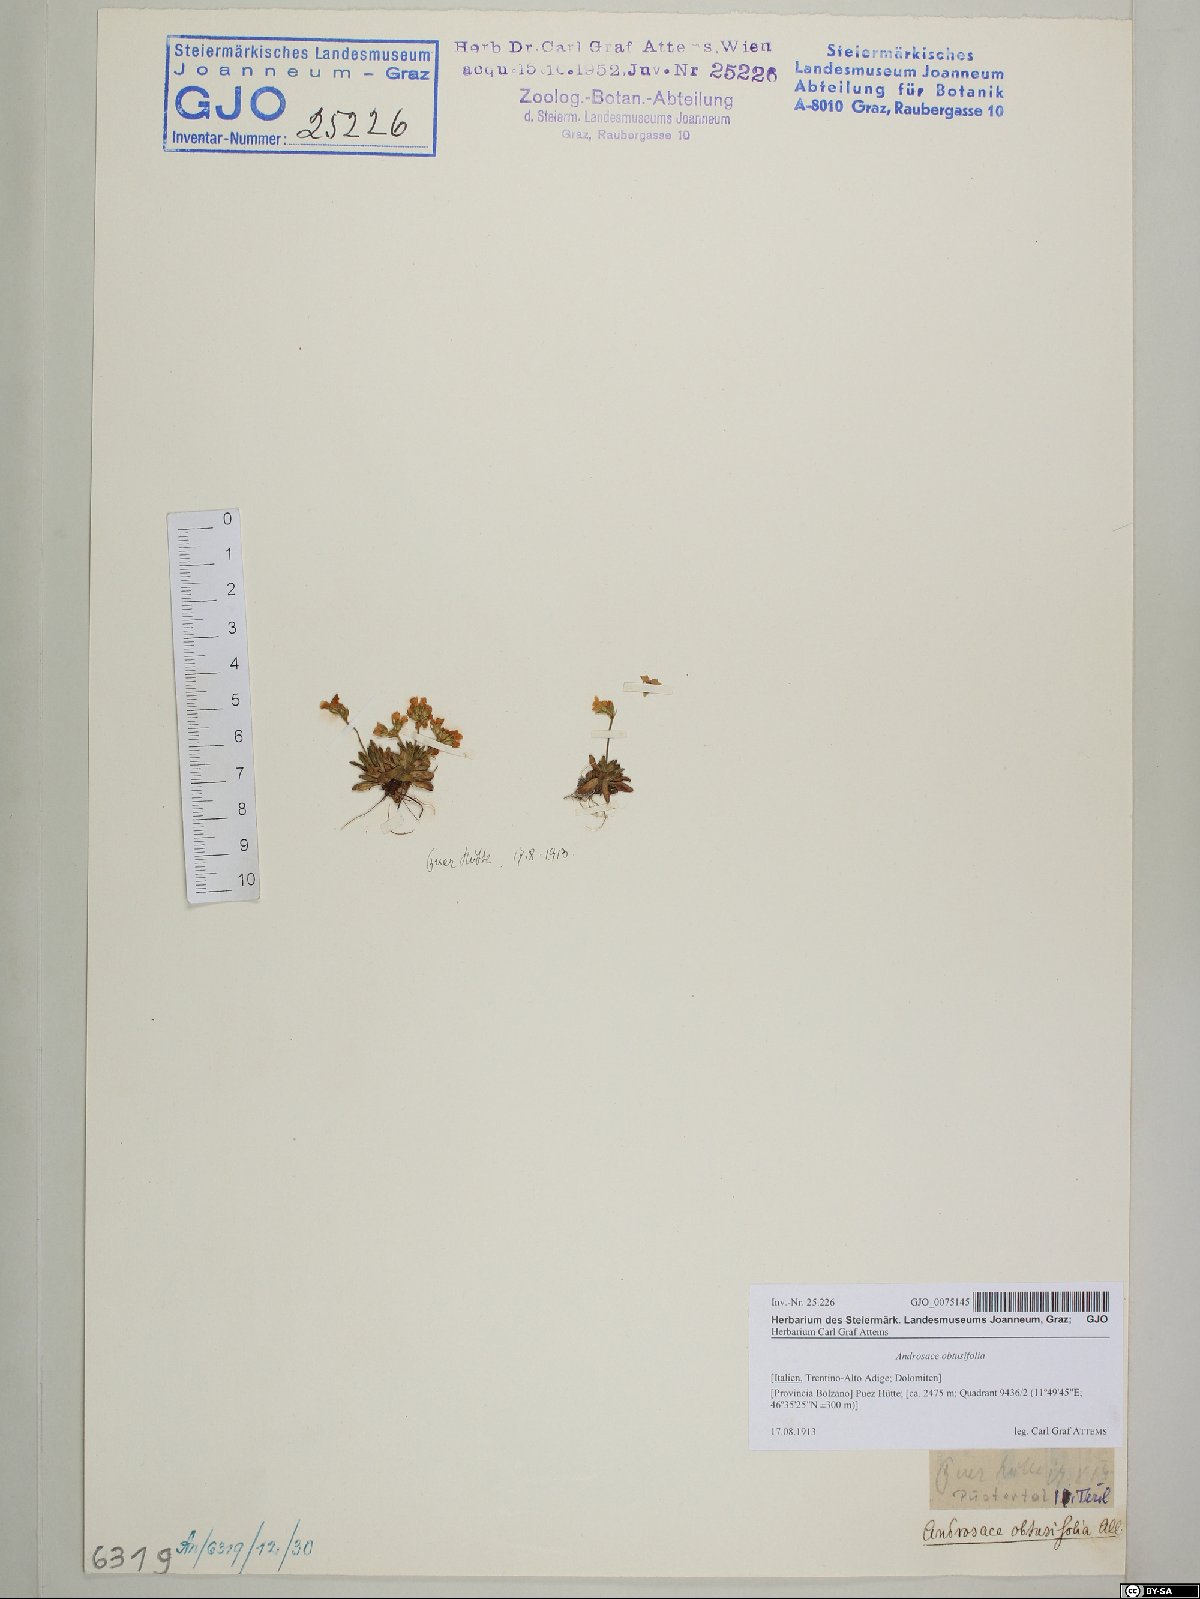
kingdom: Plantae
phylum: Tracheophyta
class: Magnoliopsida
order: Ericales
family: Primulaceae
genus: Androsace
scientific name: Androsace obtusifolia
